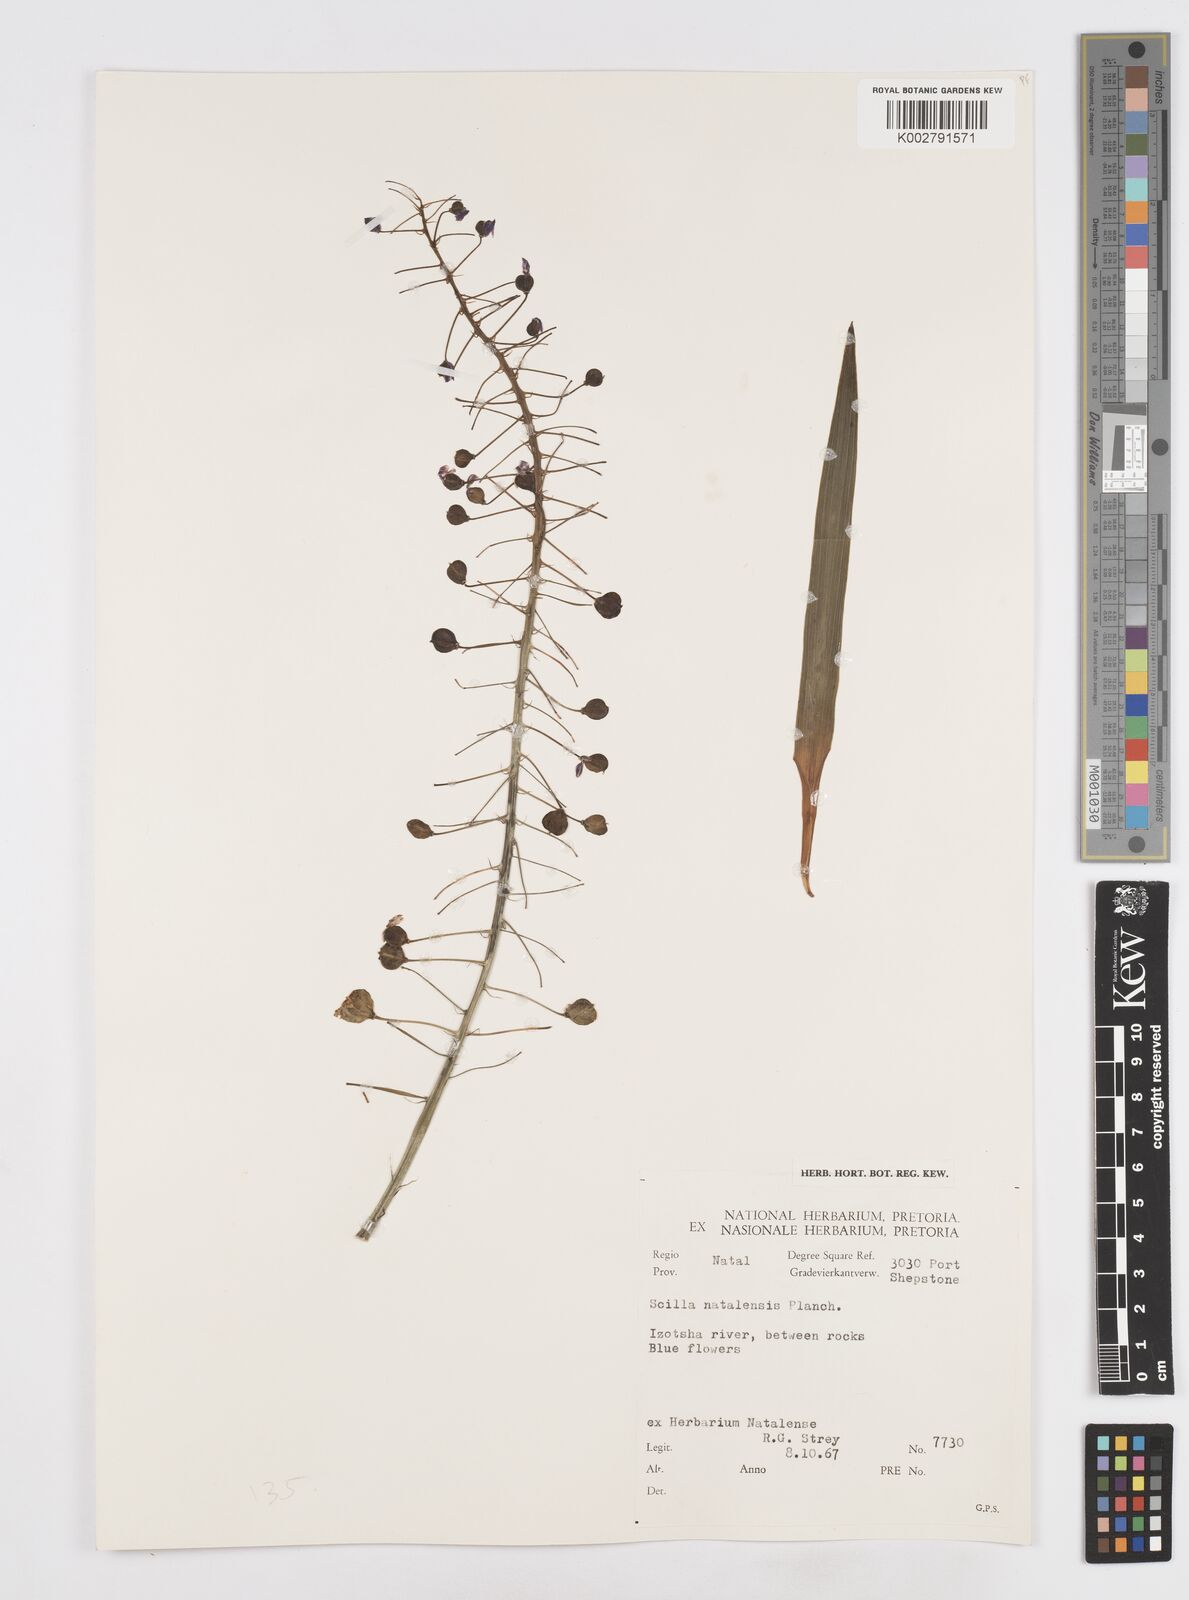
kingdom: Plantae
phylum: Tracheophyta
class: Liliopsida
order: Asparagales
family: Asparagaceae
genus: Merwilla
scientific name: Merwilla plumbea
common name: Blue-squill
